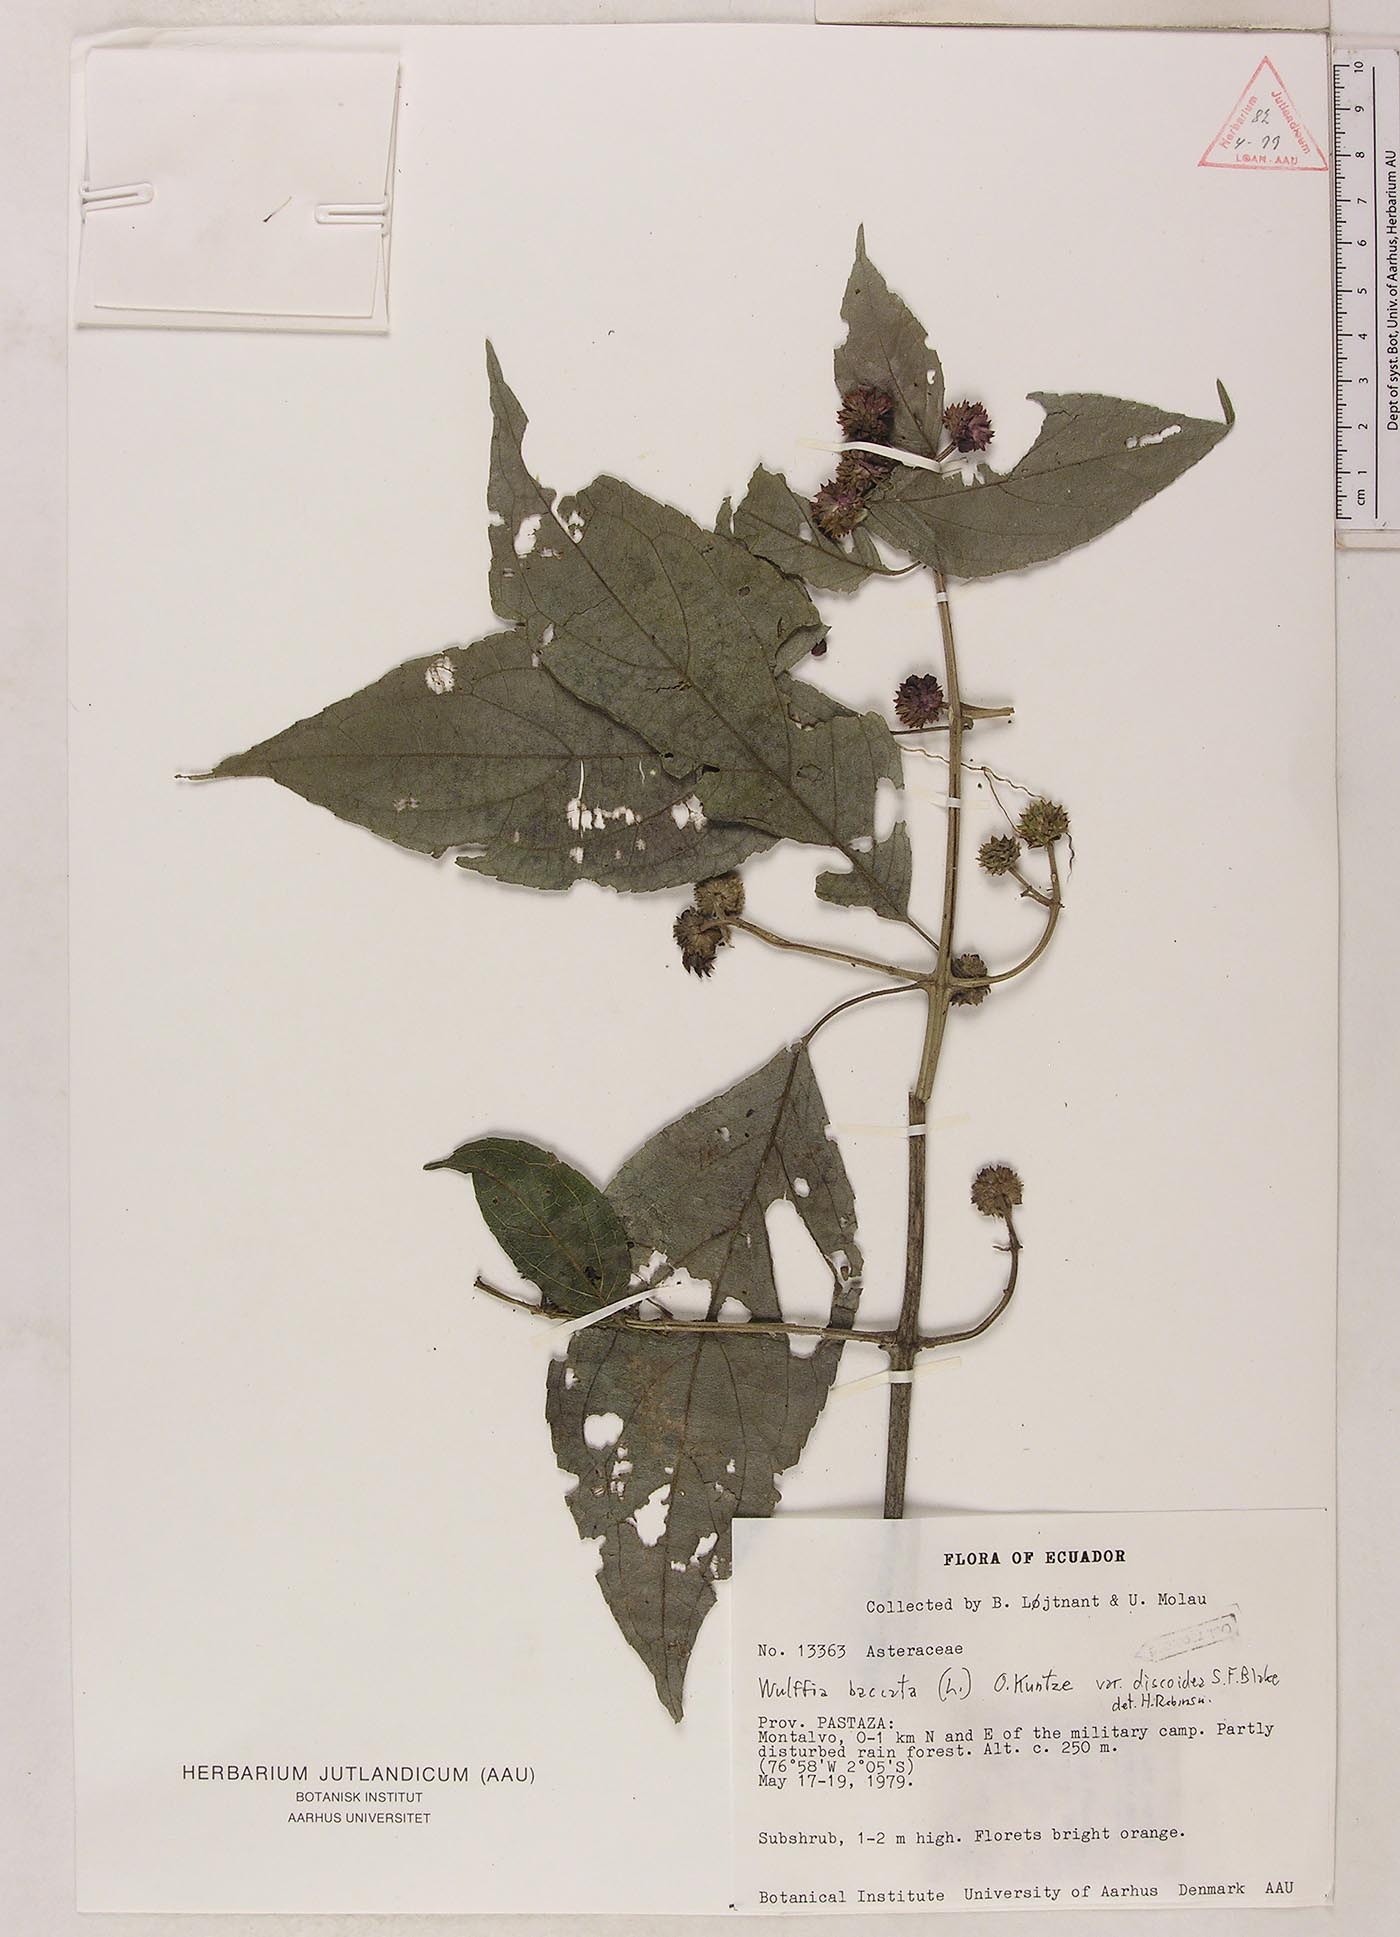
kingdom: Plantae
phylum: Tracheophyta
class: Magnoliopsida
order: Asterales
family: Asteraceae
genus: Tilesia
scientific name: Tilesia baccata
